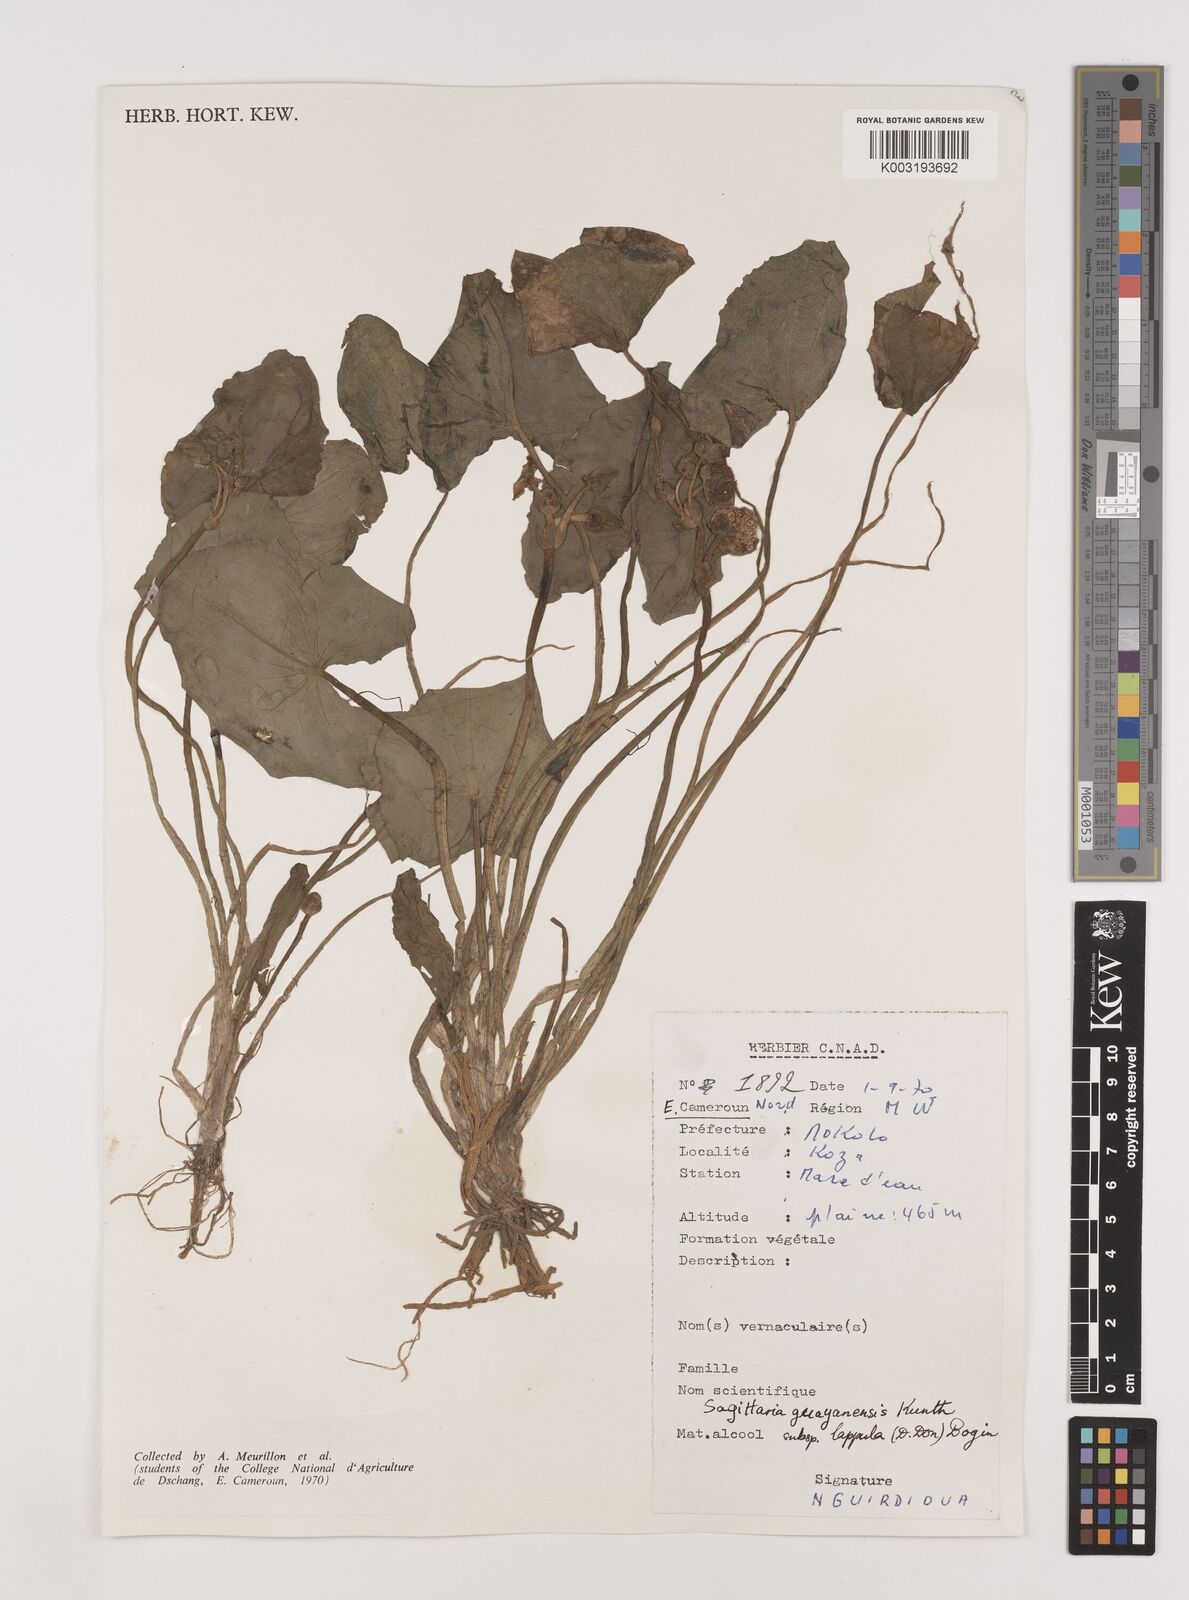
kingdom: Plantae
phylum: Tracheophyta
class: Liliopsida
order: Alismatales
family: Alismataceae
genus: Sagittaria
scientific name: Sagittaria guayanensis
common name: Guyanese arrowhead
